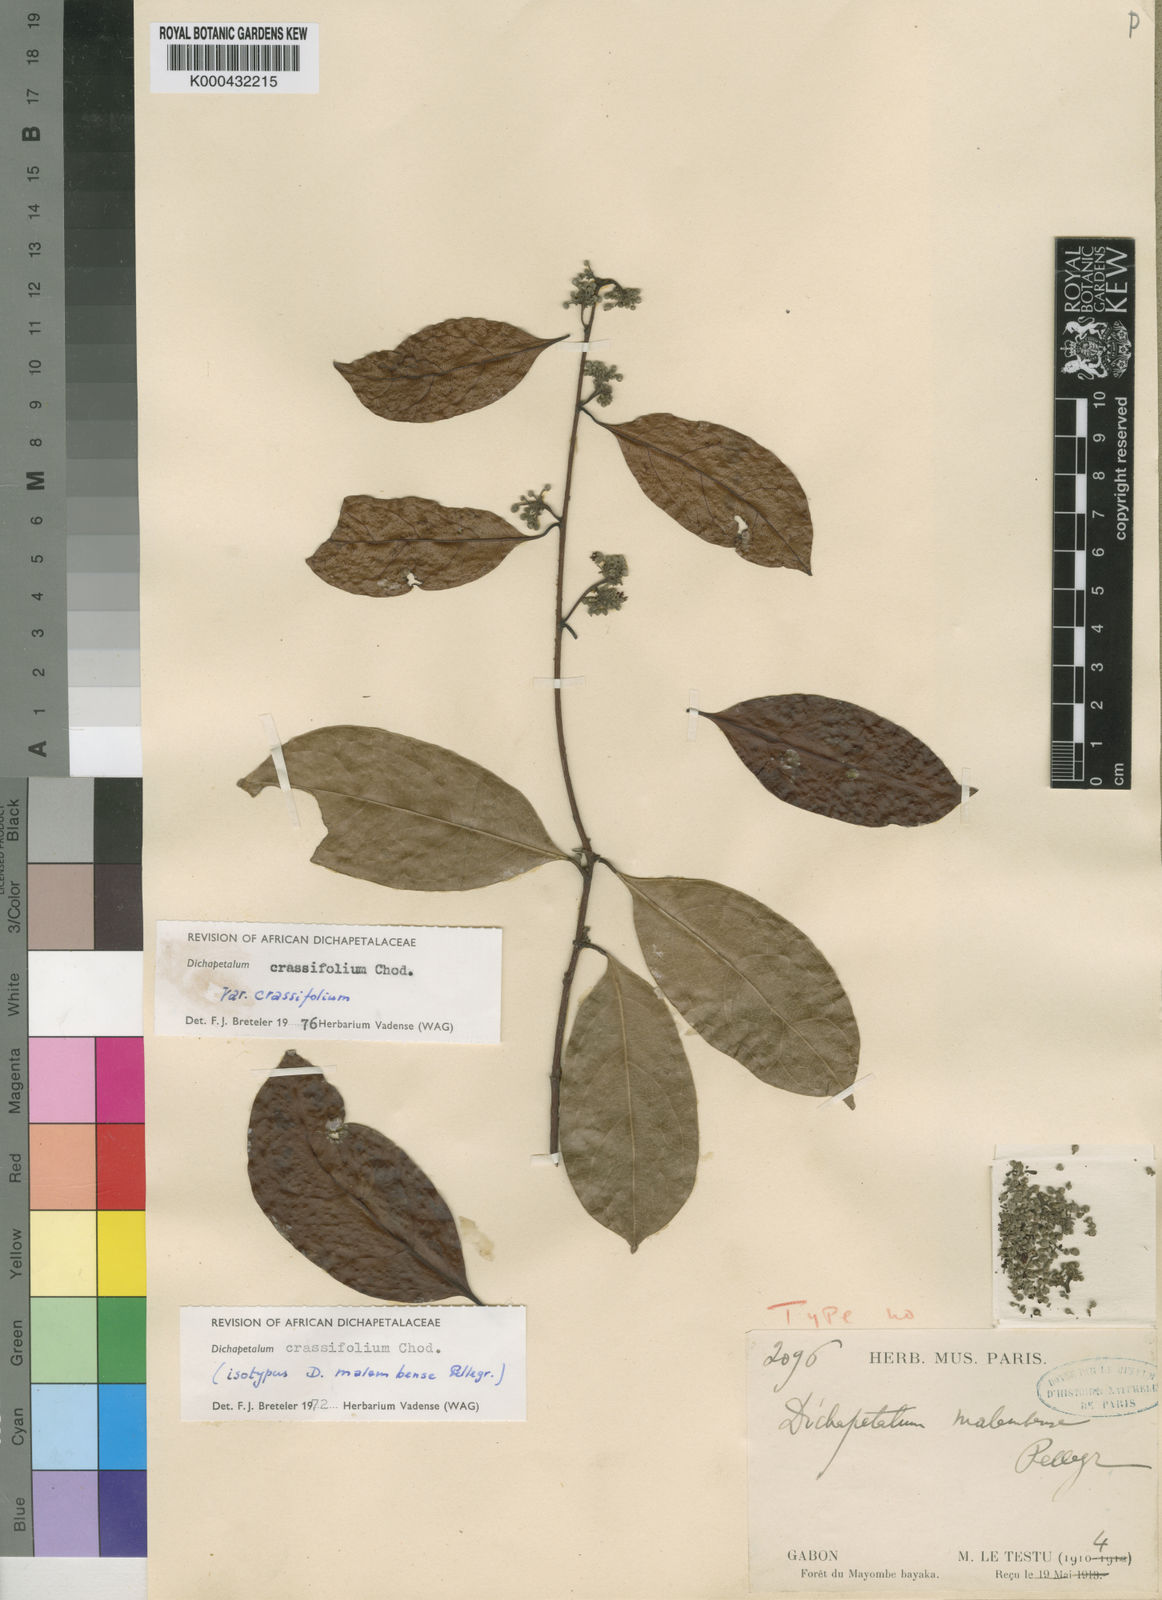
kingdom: Plantae
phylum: Tracheophyta
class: Magnoliopsida
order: Malpighiales
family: Dichapetalaceae
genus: Dichapetalum
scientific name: Dichapetalum crassifolium
